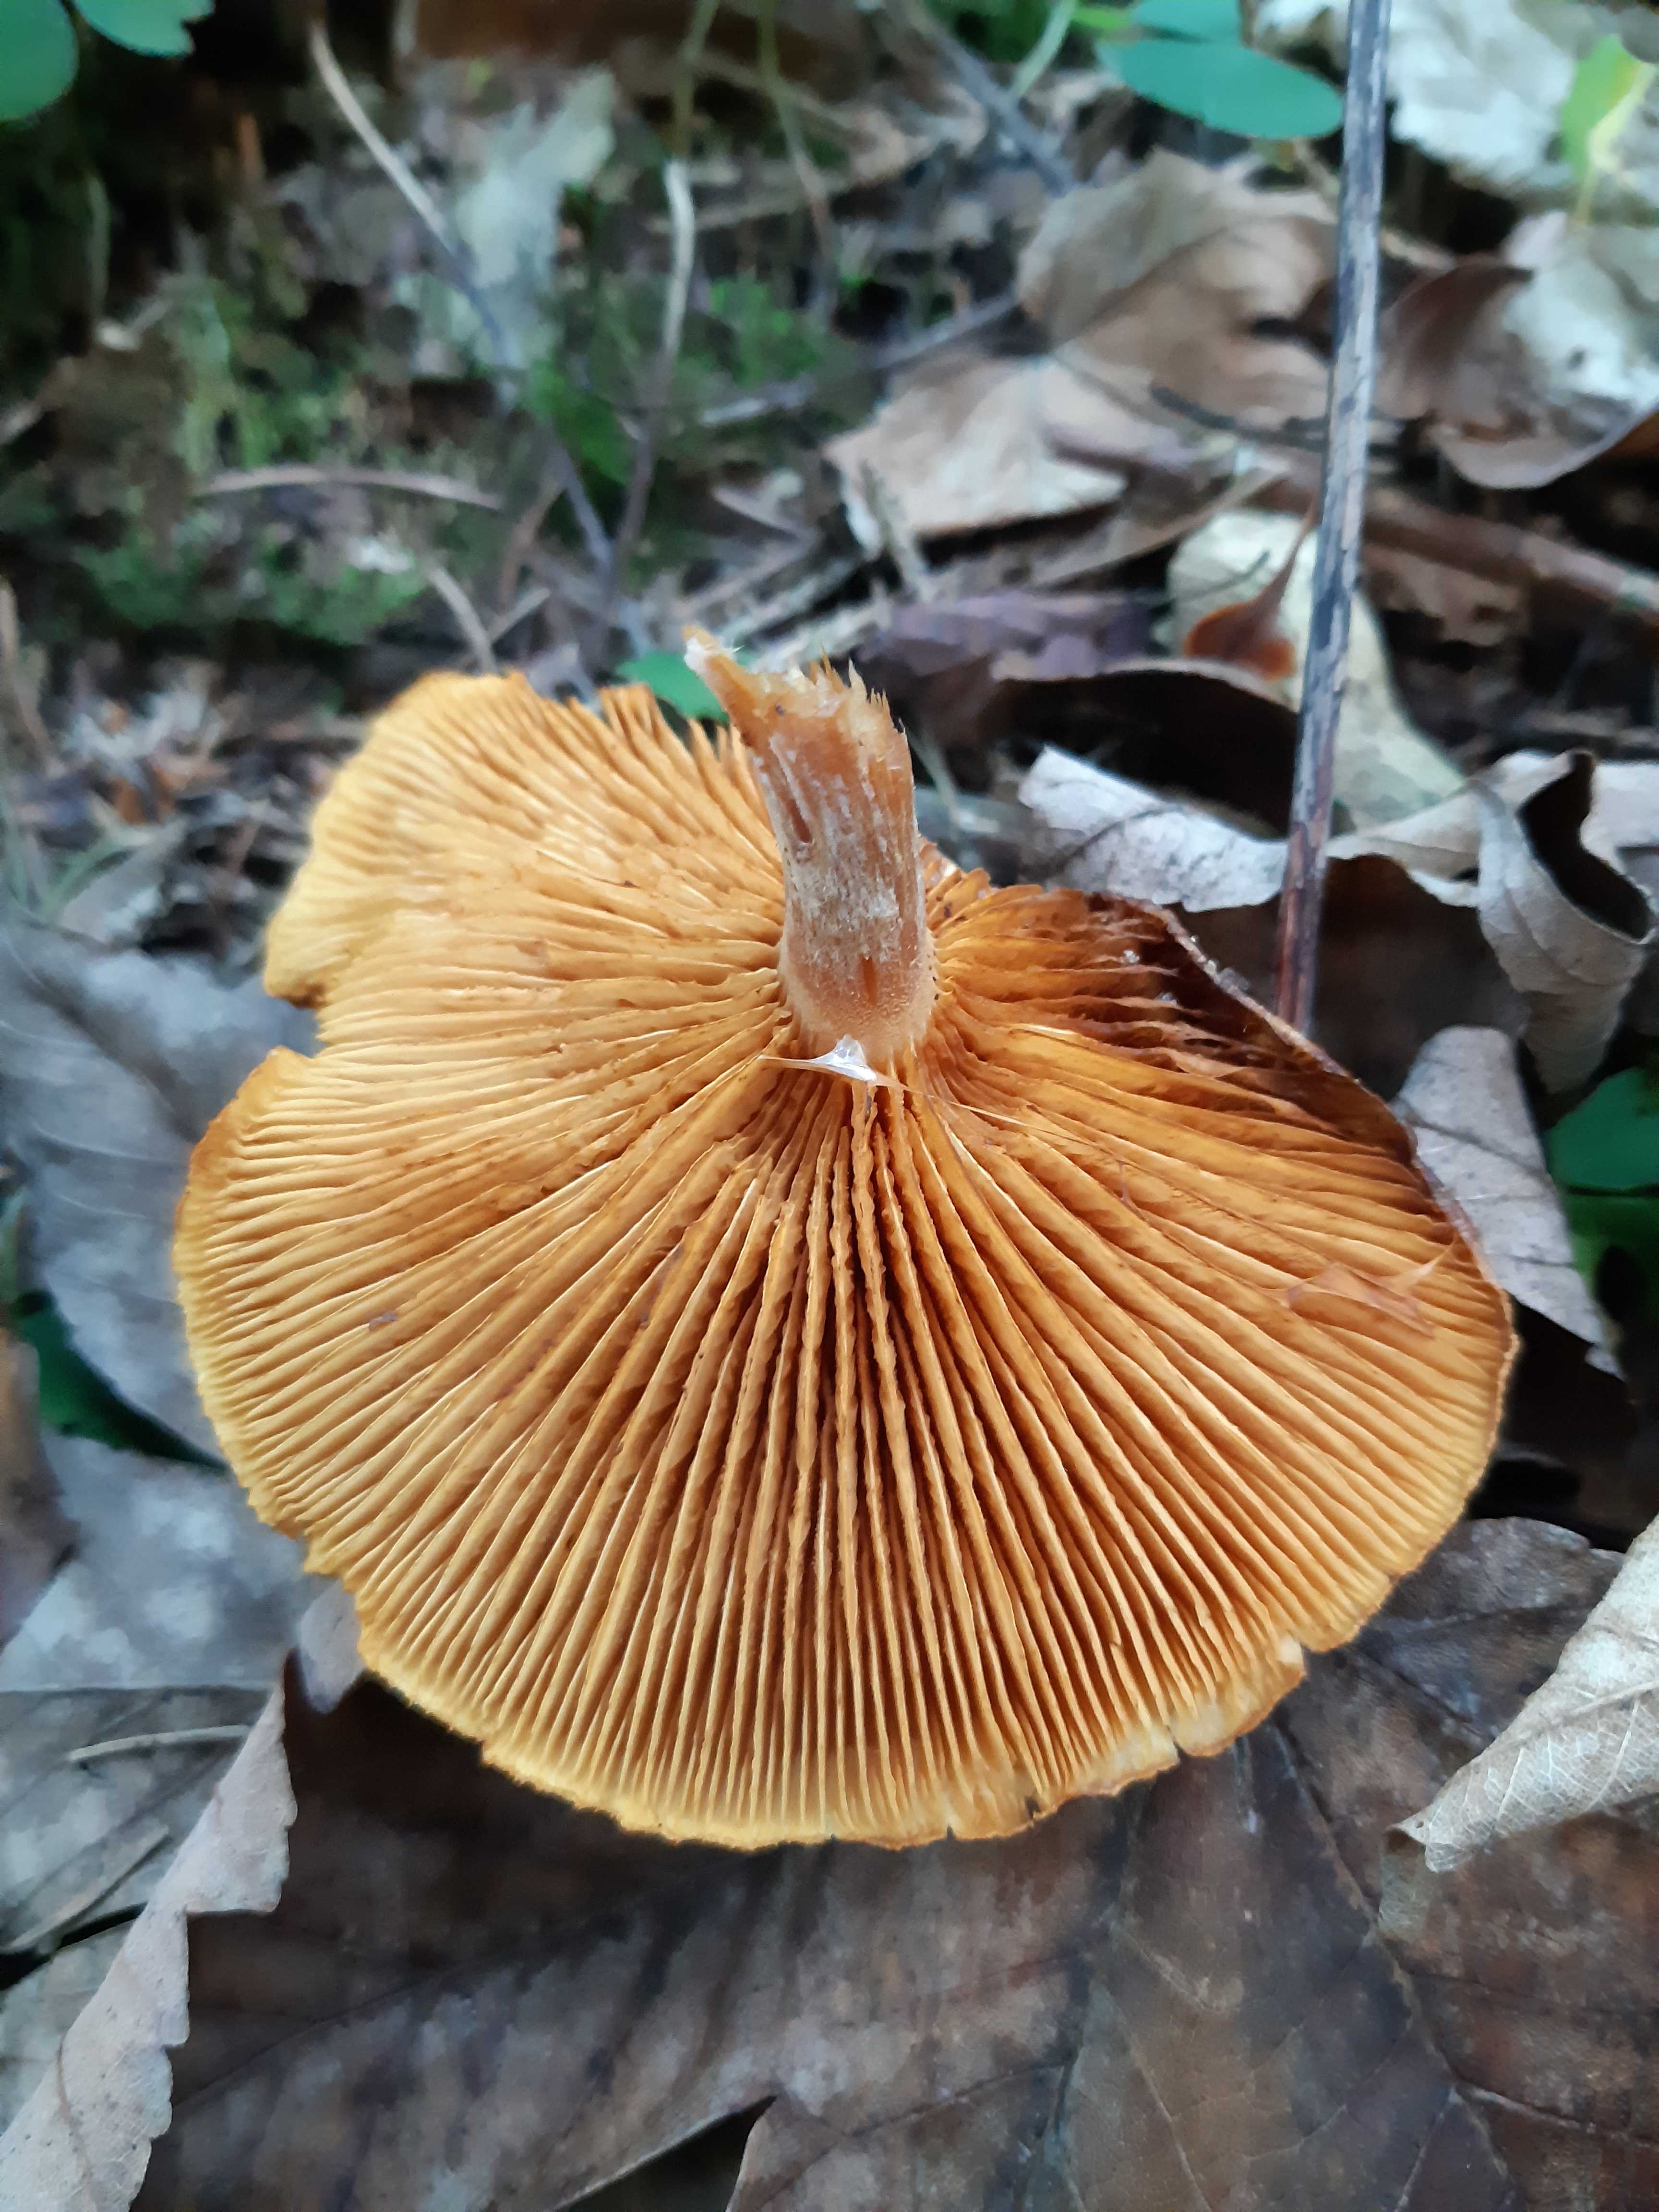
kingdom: Fungi
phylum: Basidiomycota
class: Agaricomycetes
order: Agaricales
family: Hymenogastraceae
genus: Gymnopilus
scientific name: Gymnopilus penetrans
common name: plettet flammehat
